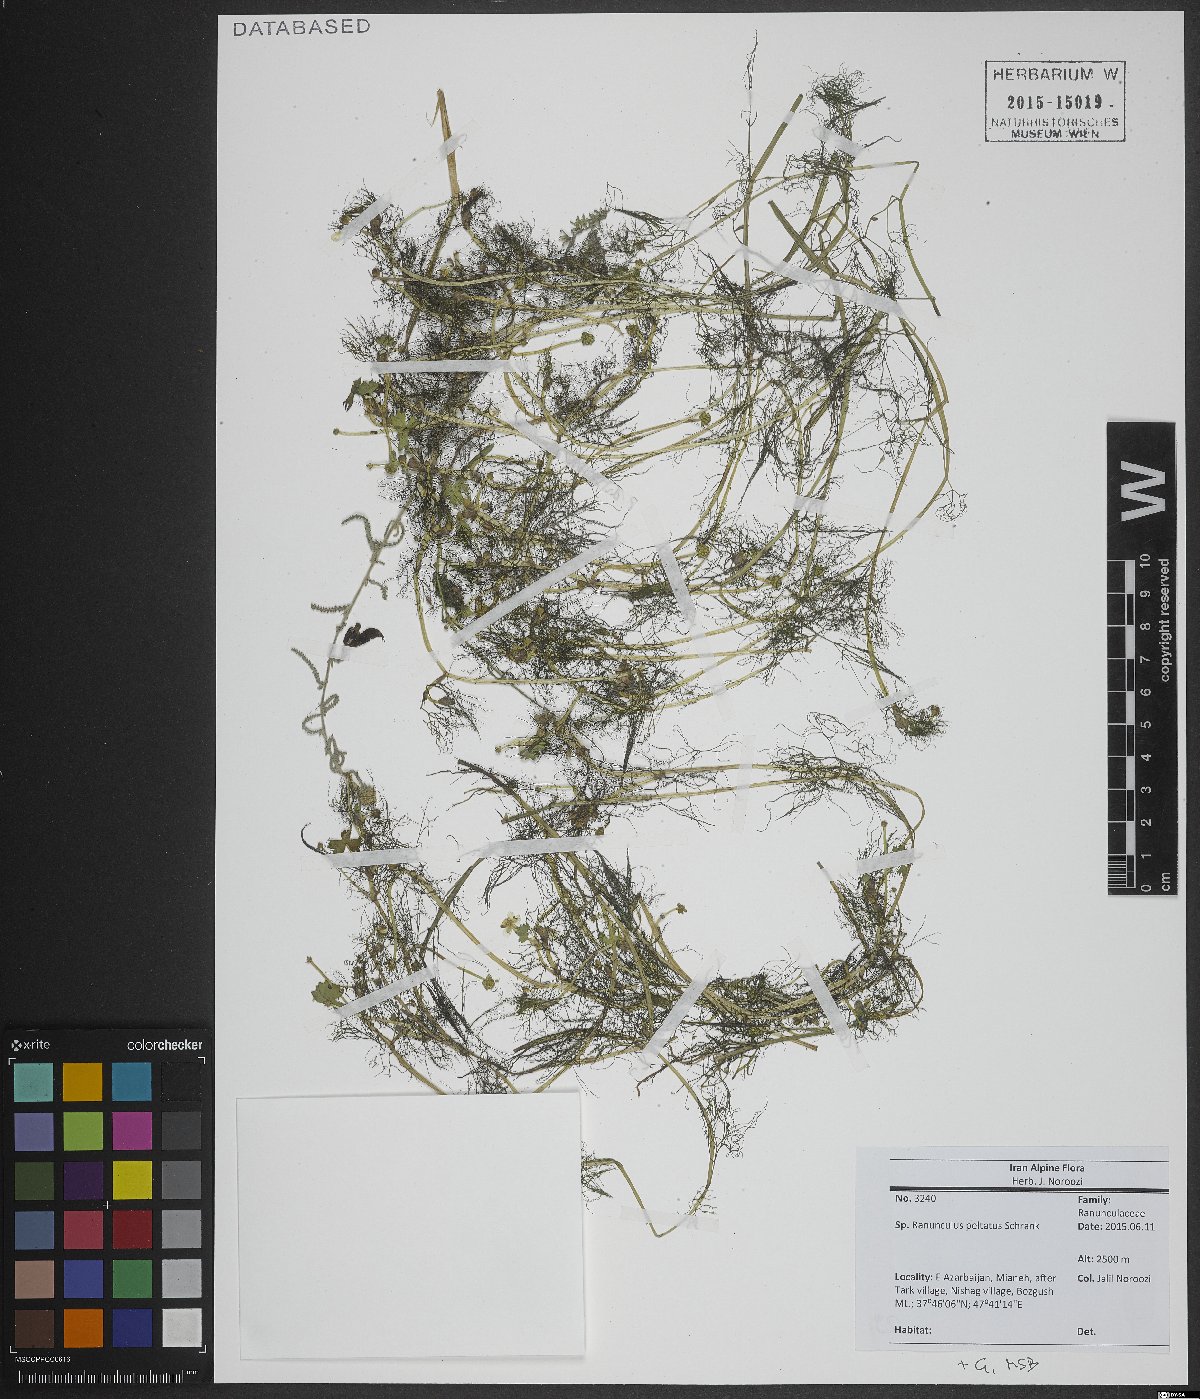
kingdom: Plantae
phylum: Tracheophyta
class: Magnoliopsida
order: Ranunculales
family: Ranunculaceae
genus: Ranunculus
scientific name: Ranunculus
